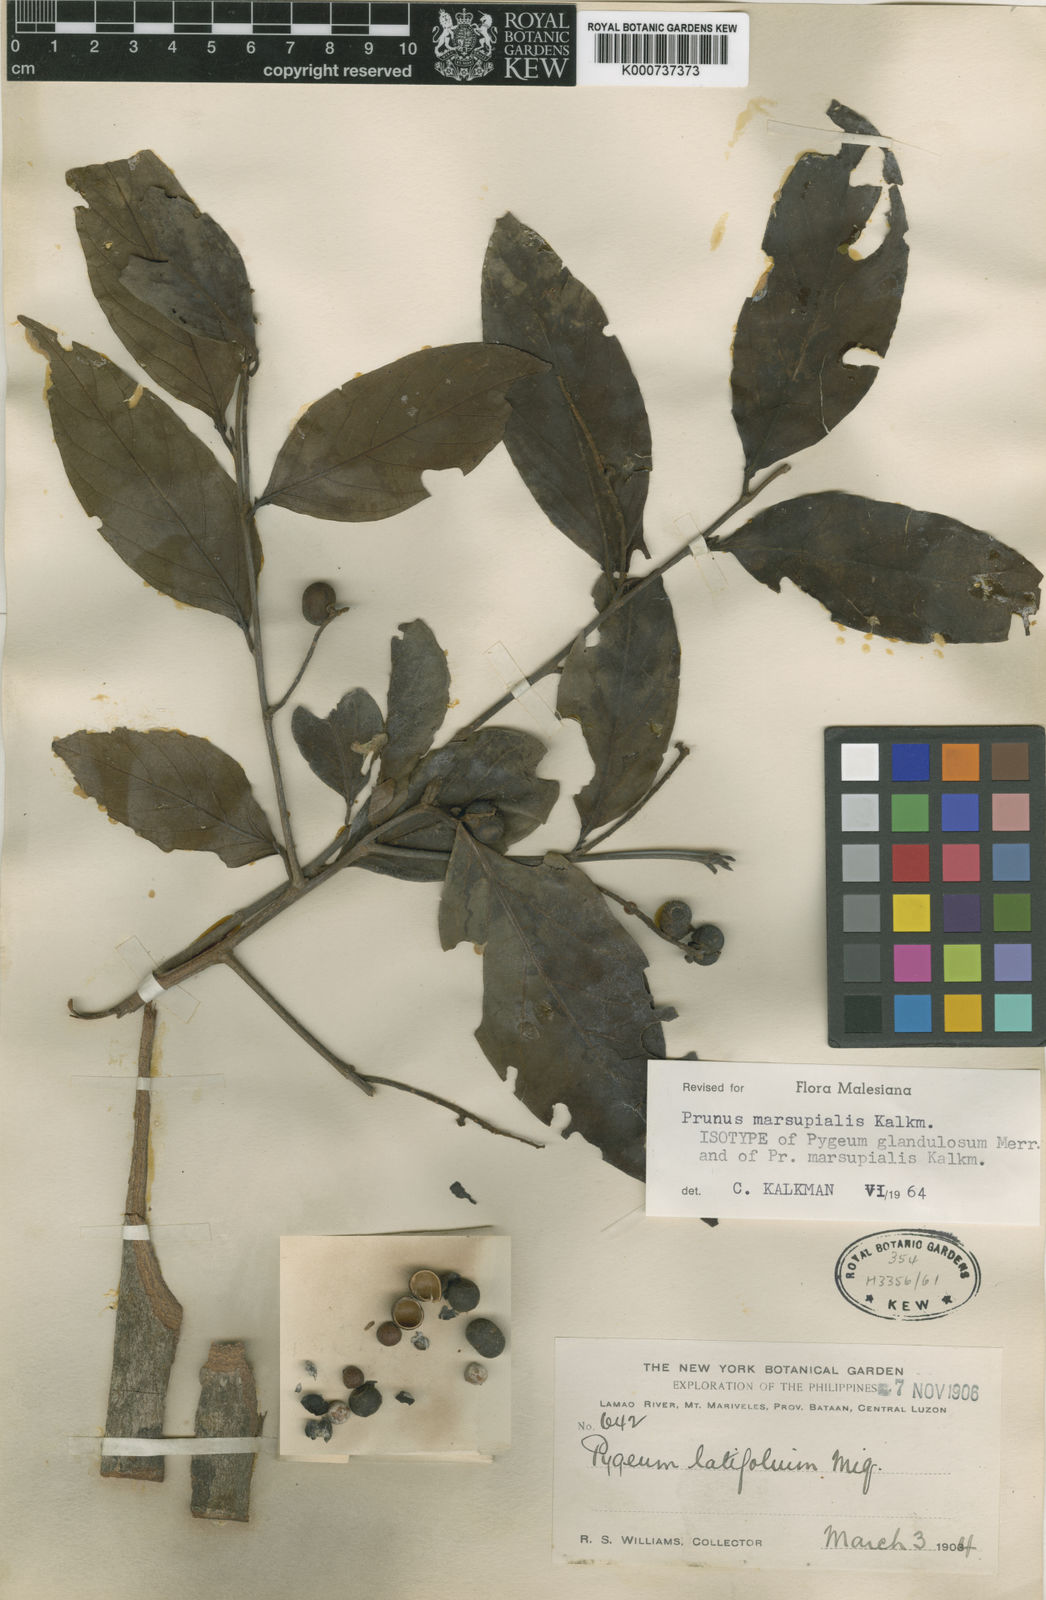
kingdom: Plantae
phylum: Tracheophyta
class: Magnoliopsida
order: Rosales
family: Rosaceae
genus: Prunus
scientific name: Prunus marsupialis
